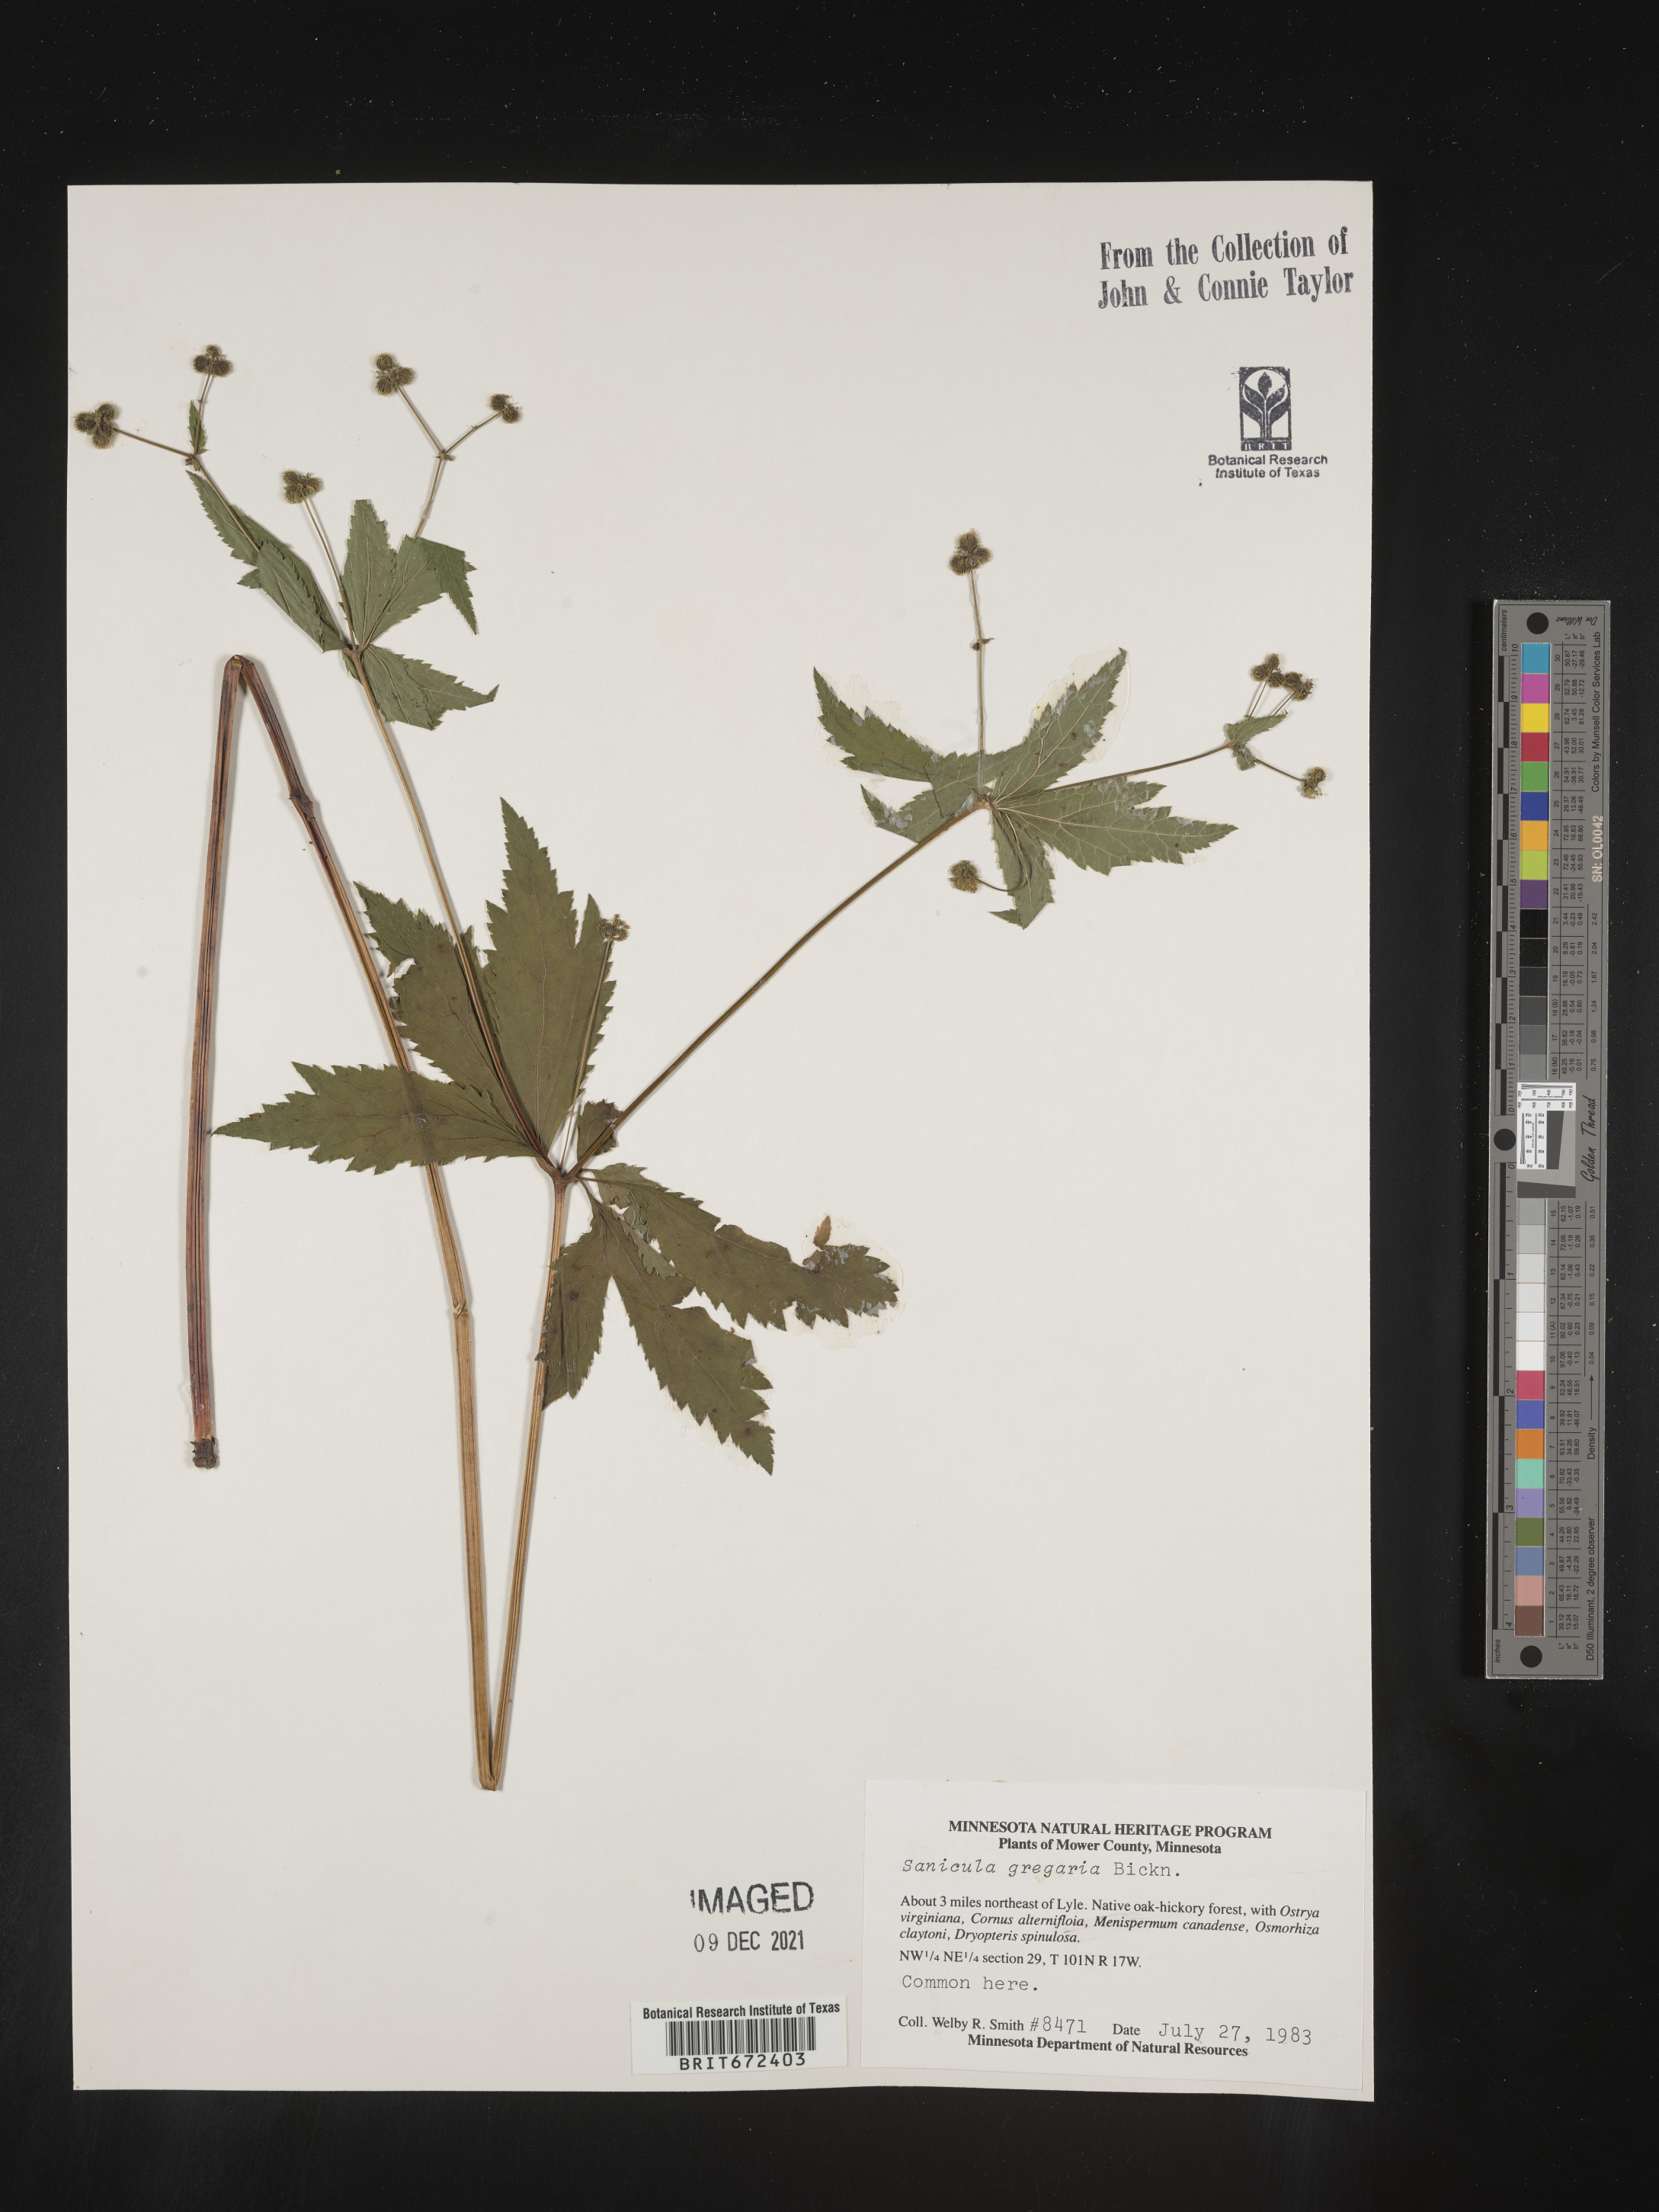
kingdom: Plantae
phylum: Tracheophyta
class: Magnoliopsida
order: Apiales
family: Apiaceae
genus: Sanicula
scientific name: Sanicula odorata
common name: Cluster sanicle
